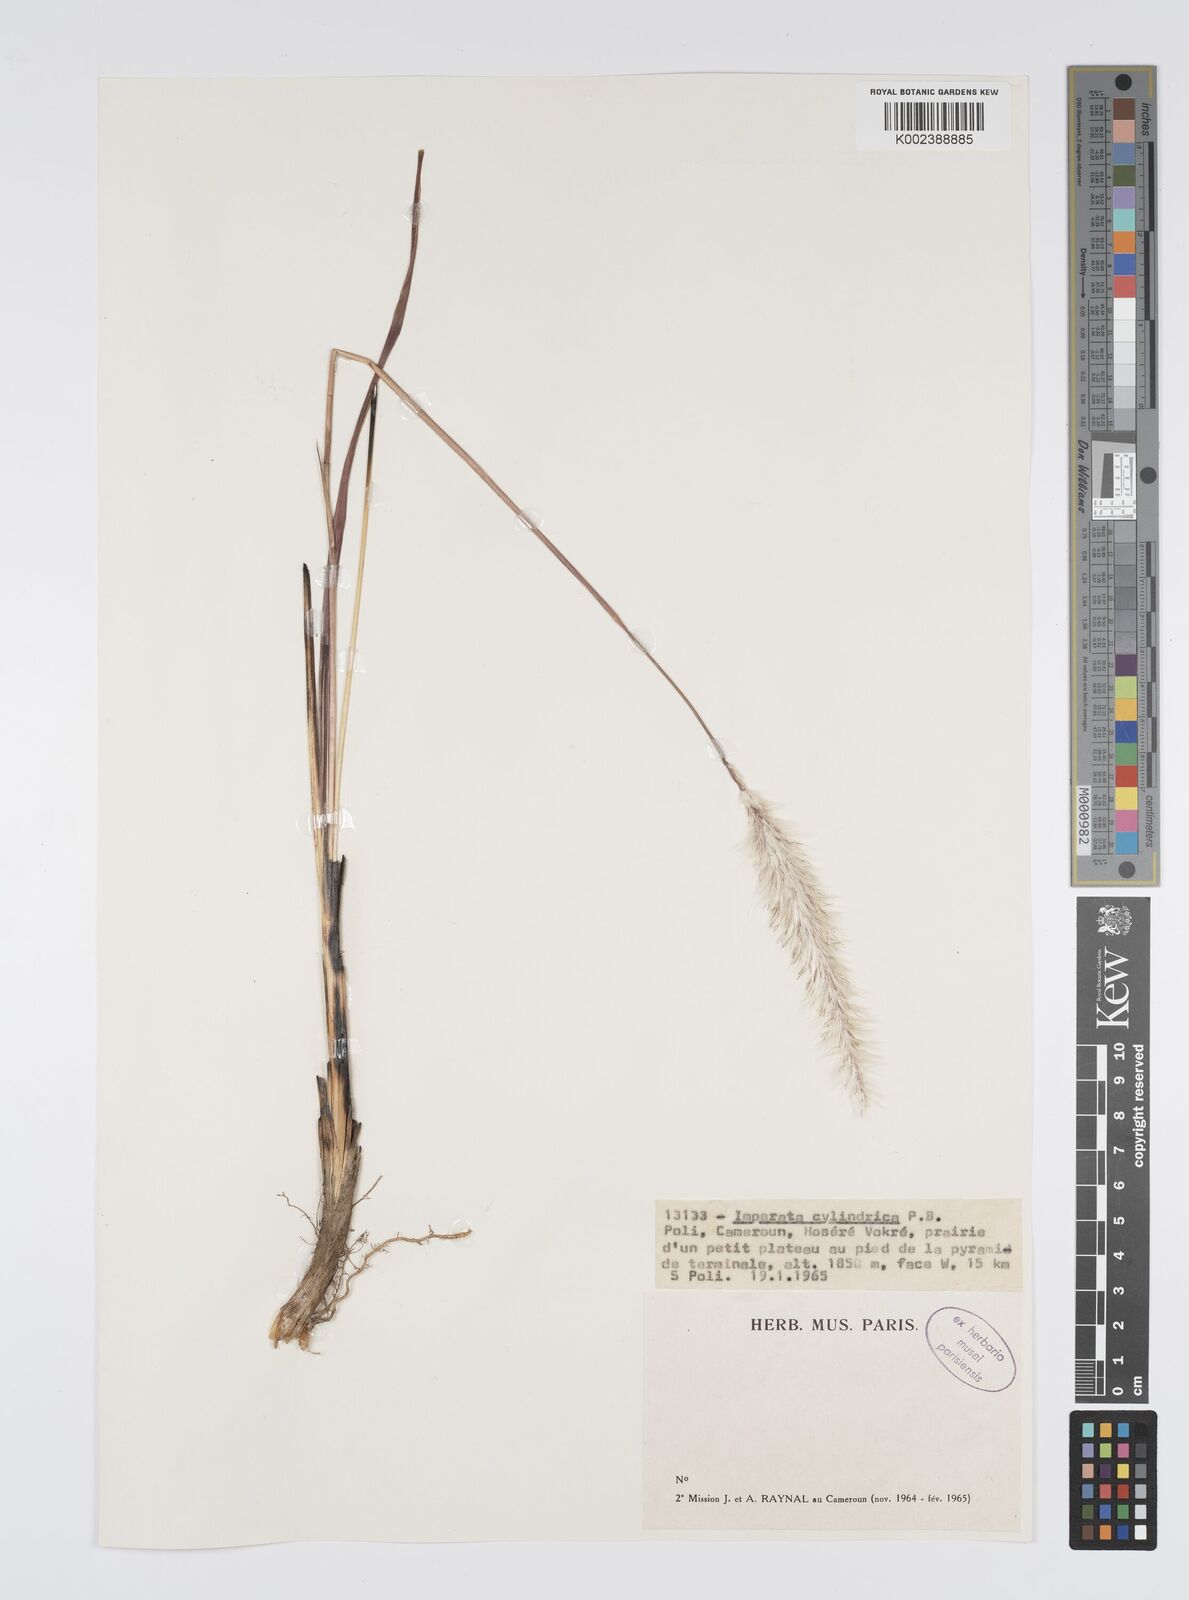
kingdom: Plantae
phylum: Tracheophyta
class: Liliopsida
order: Poales
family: Poaceae
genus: Imperata
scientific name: Imperata cylindrica
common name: Cogongrass
